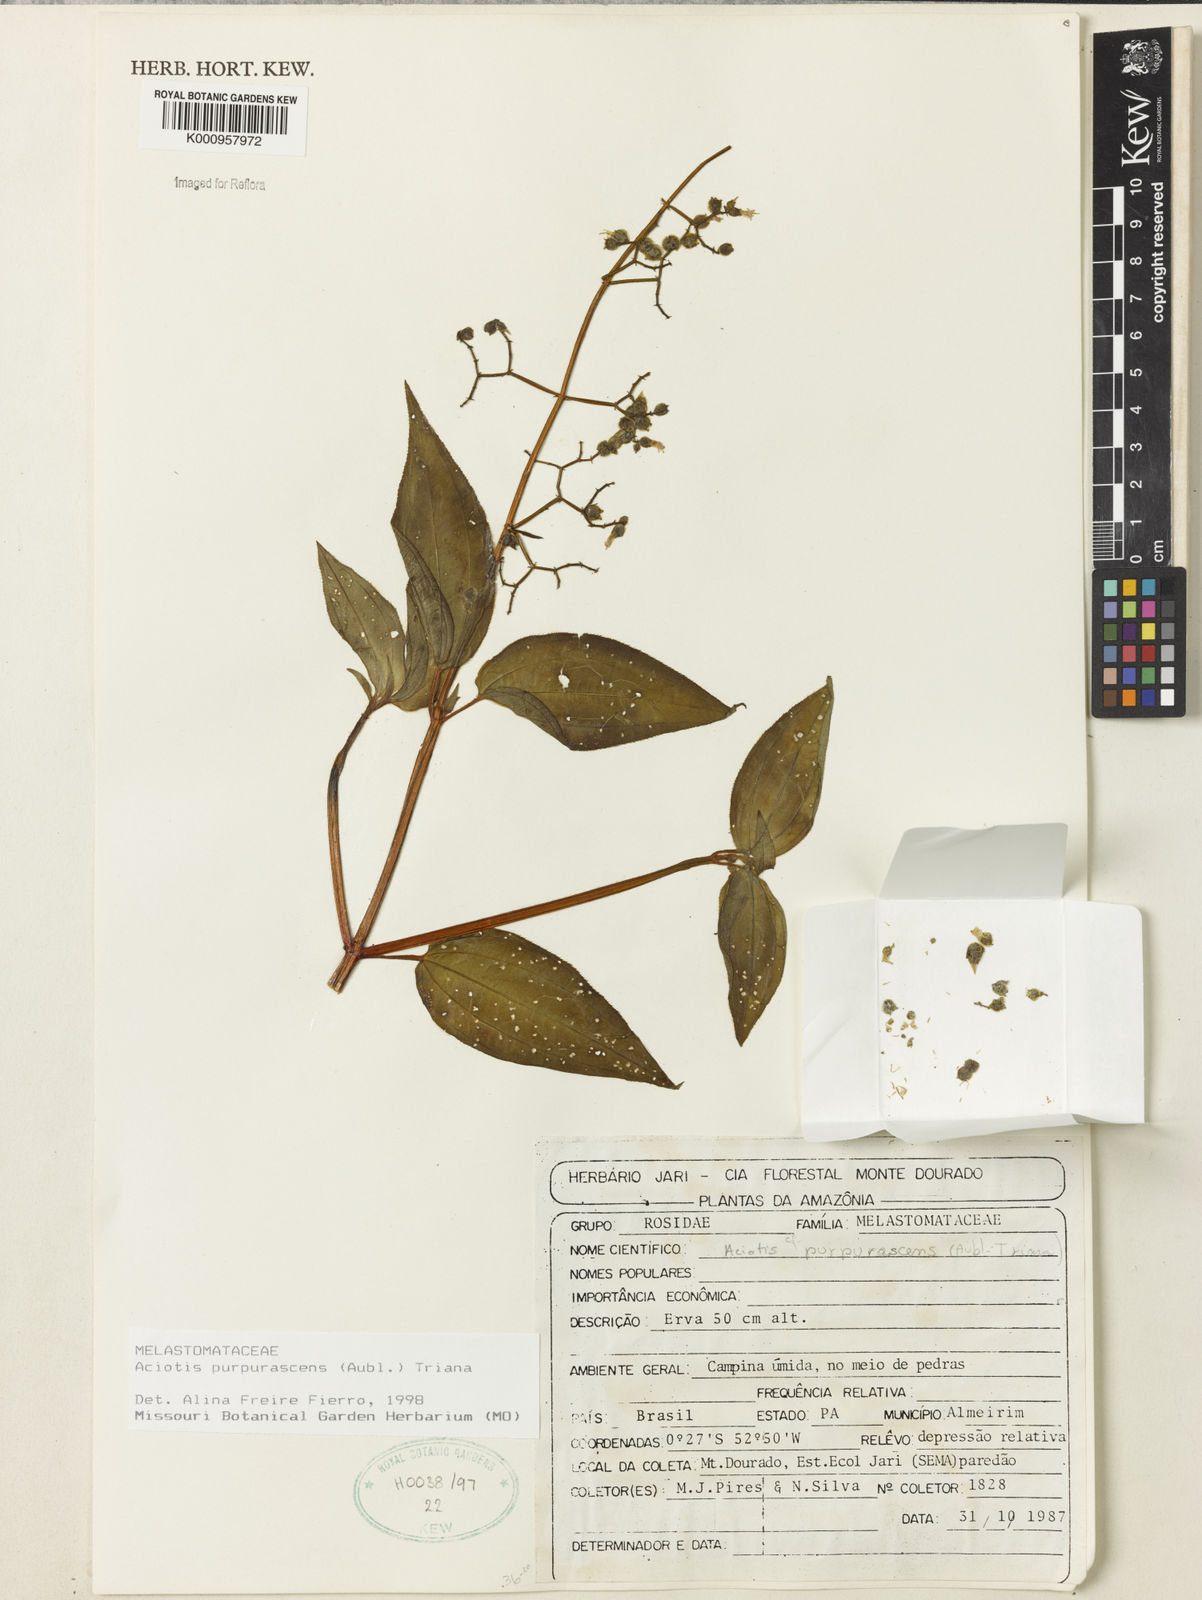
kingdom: Plantae
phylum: Tracheophyta
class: Magnoliopsida
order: Myrtales
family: Melastomataceae
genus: Aciotis
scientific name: Aciotis purpurascens
